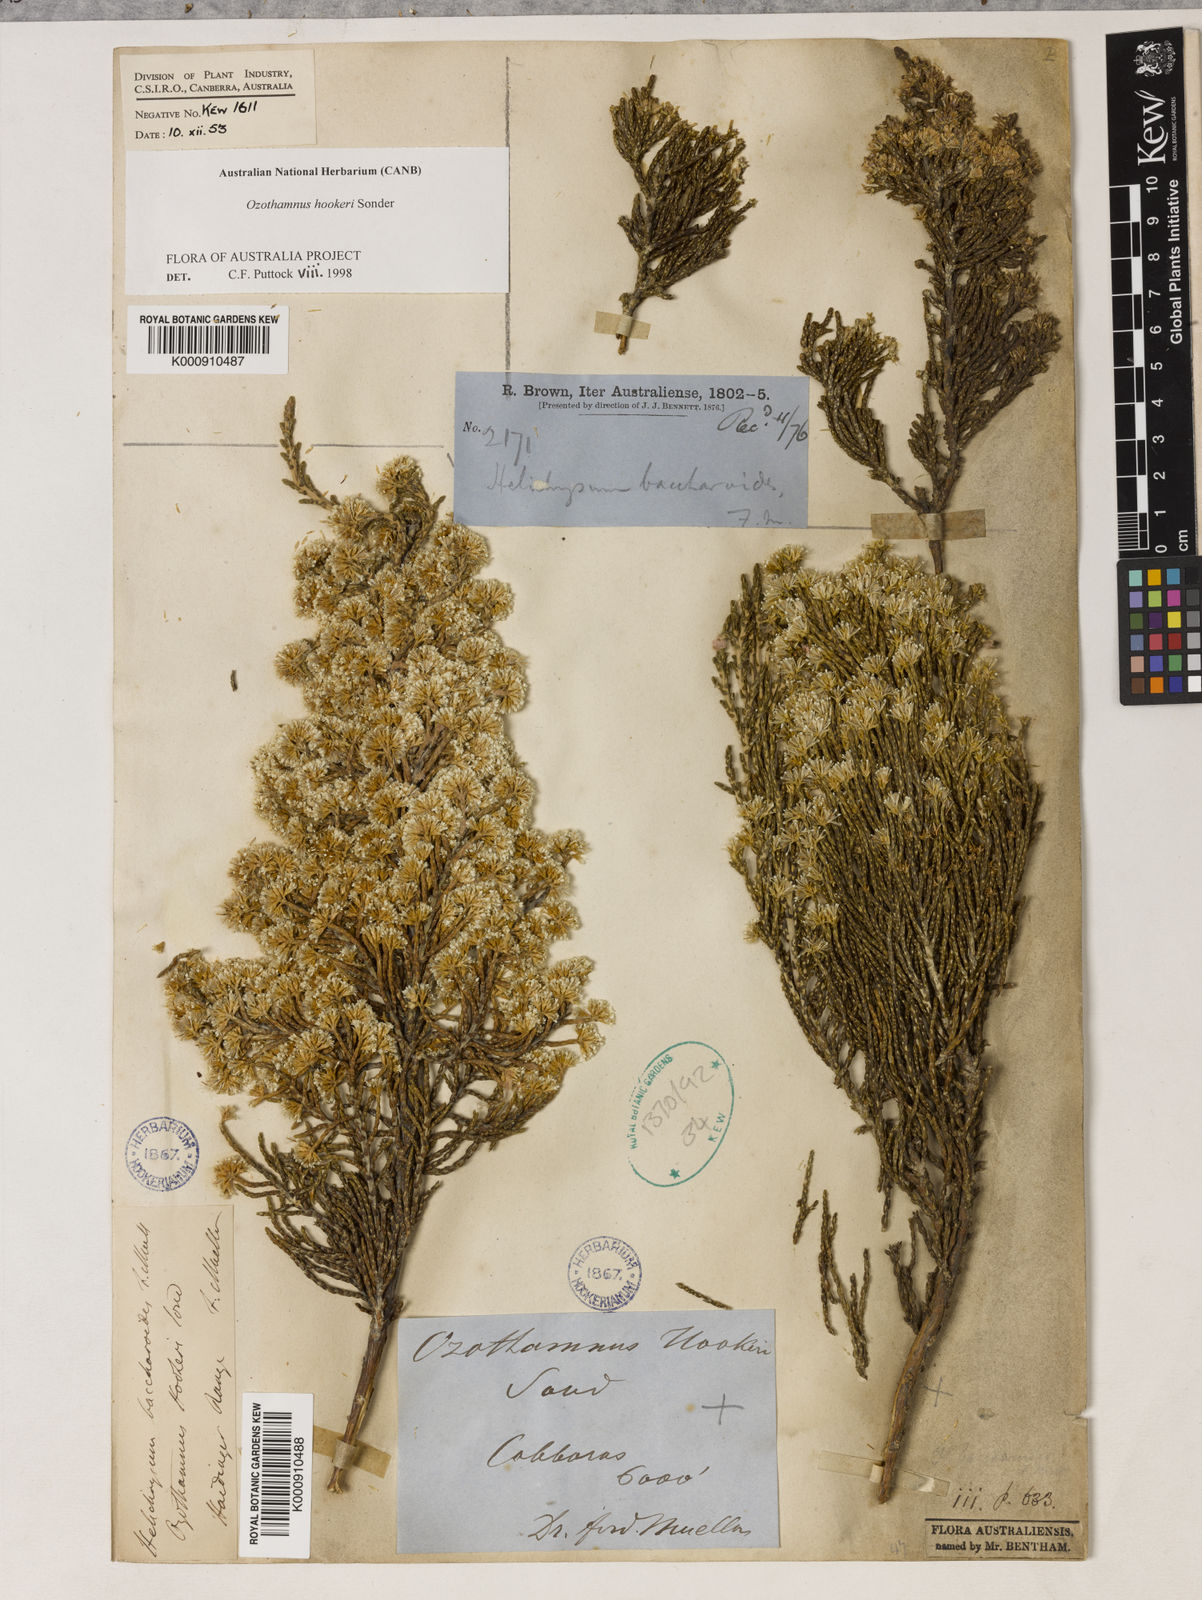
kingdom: Plantae
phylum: Tracheophyta
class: Magnoliopsida
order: Asterales
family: Asteraceae
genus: Ozothamnus
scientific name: Ozothamnus hookeri
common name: Kerosene-bush
